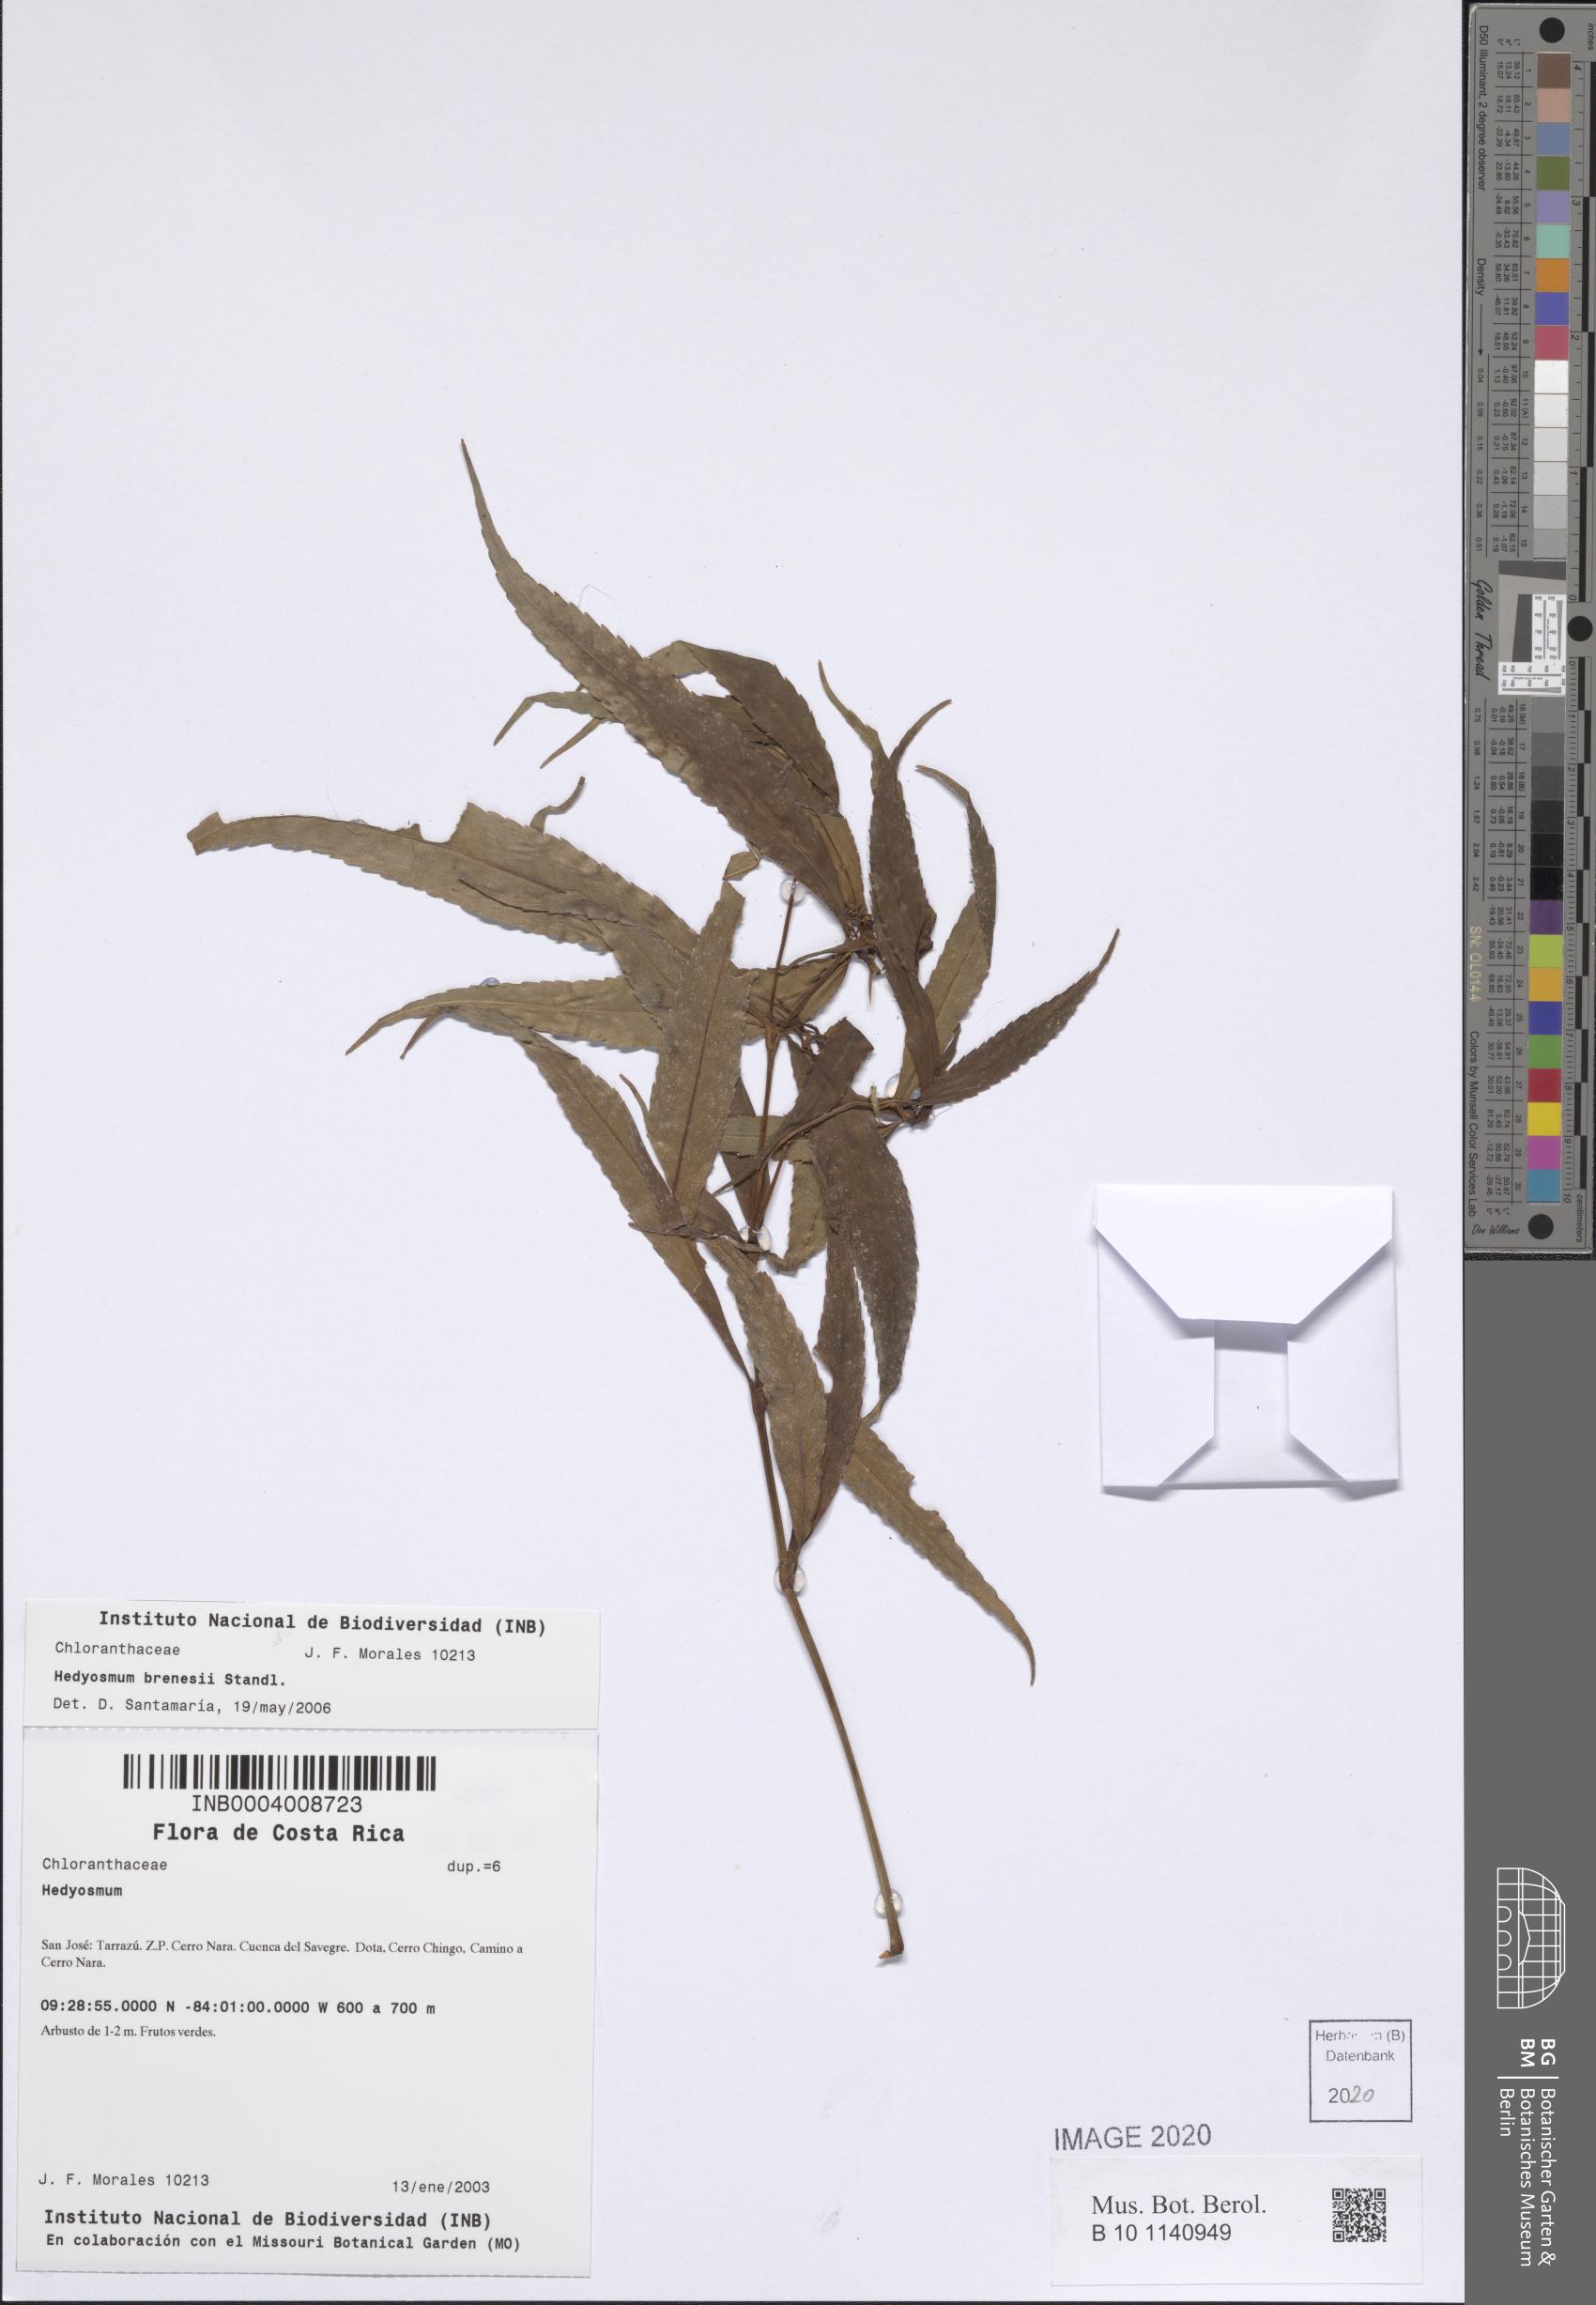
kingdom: Plantae
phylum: Tracheophyta
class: Magnoliopsida
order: Chloranthales
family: Chloranthaceae
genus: Hedyosmum
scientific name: Hedyosmum brenesii
